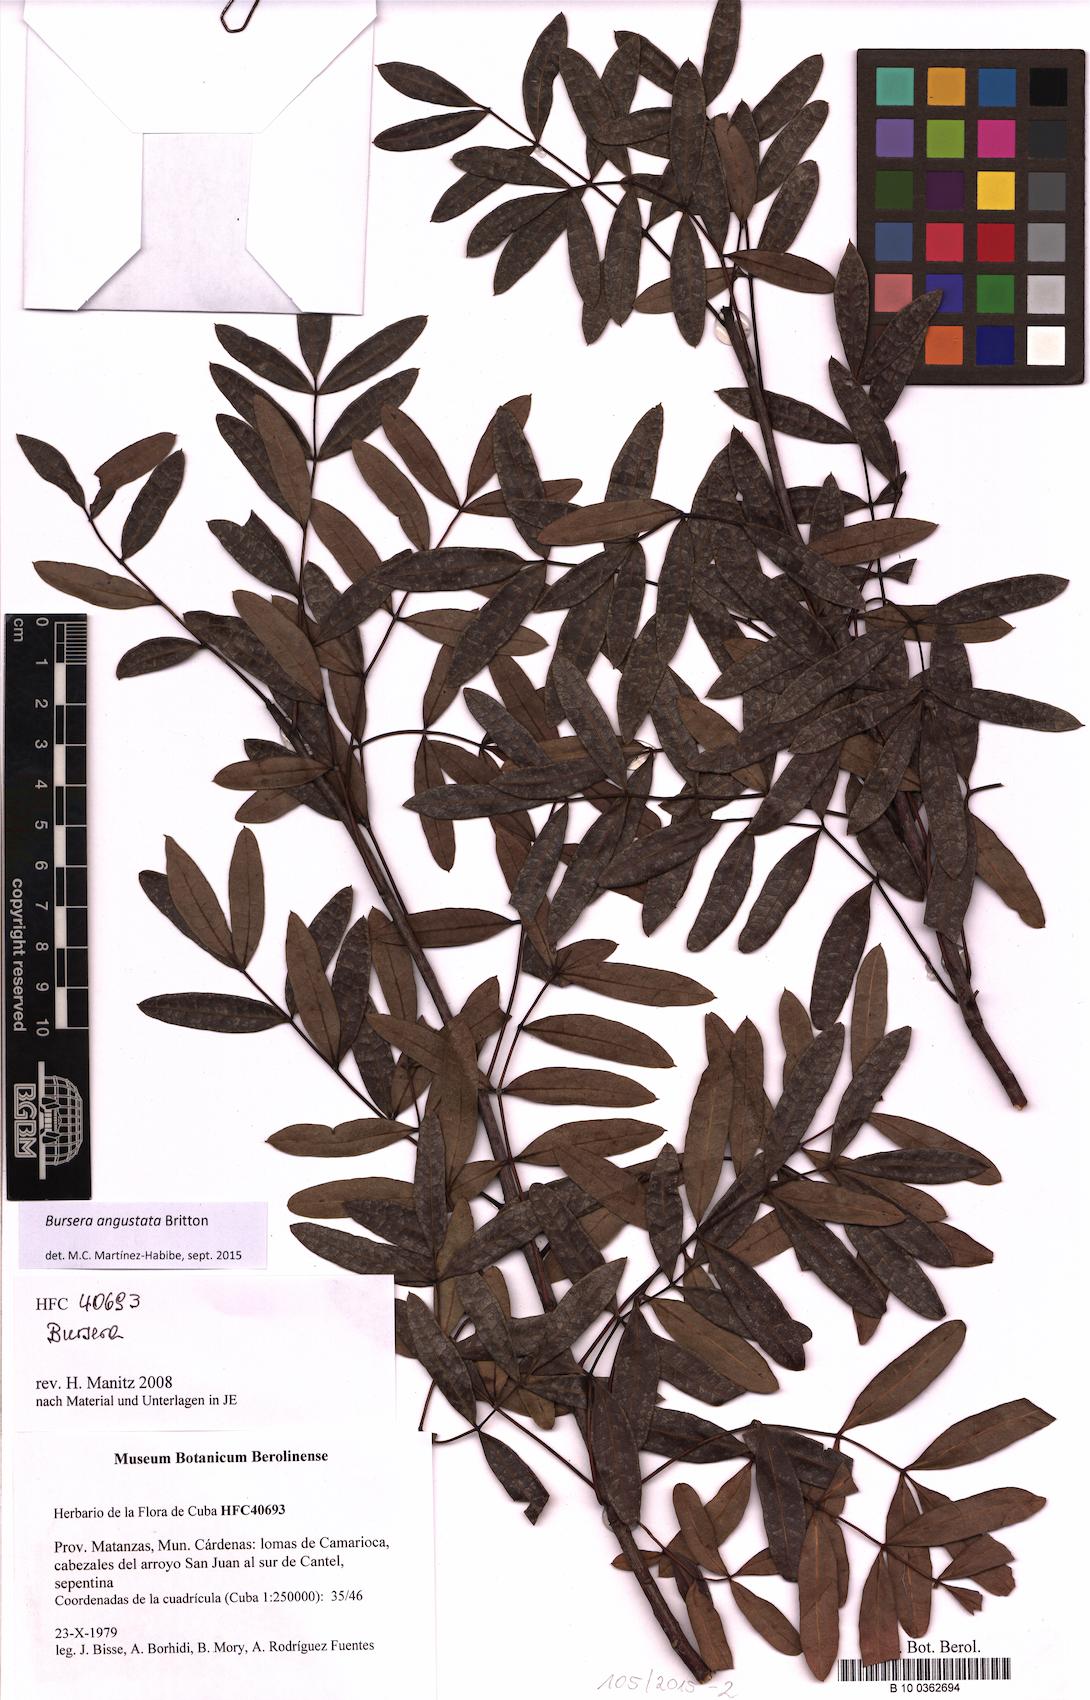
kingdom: Plantae
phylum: Tracheophyta
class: Magnoliopsida
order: Sapindales
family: Burseraceae
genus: Bursera
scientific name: Bursera angustata
